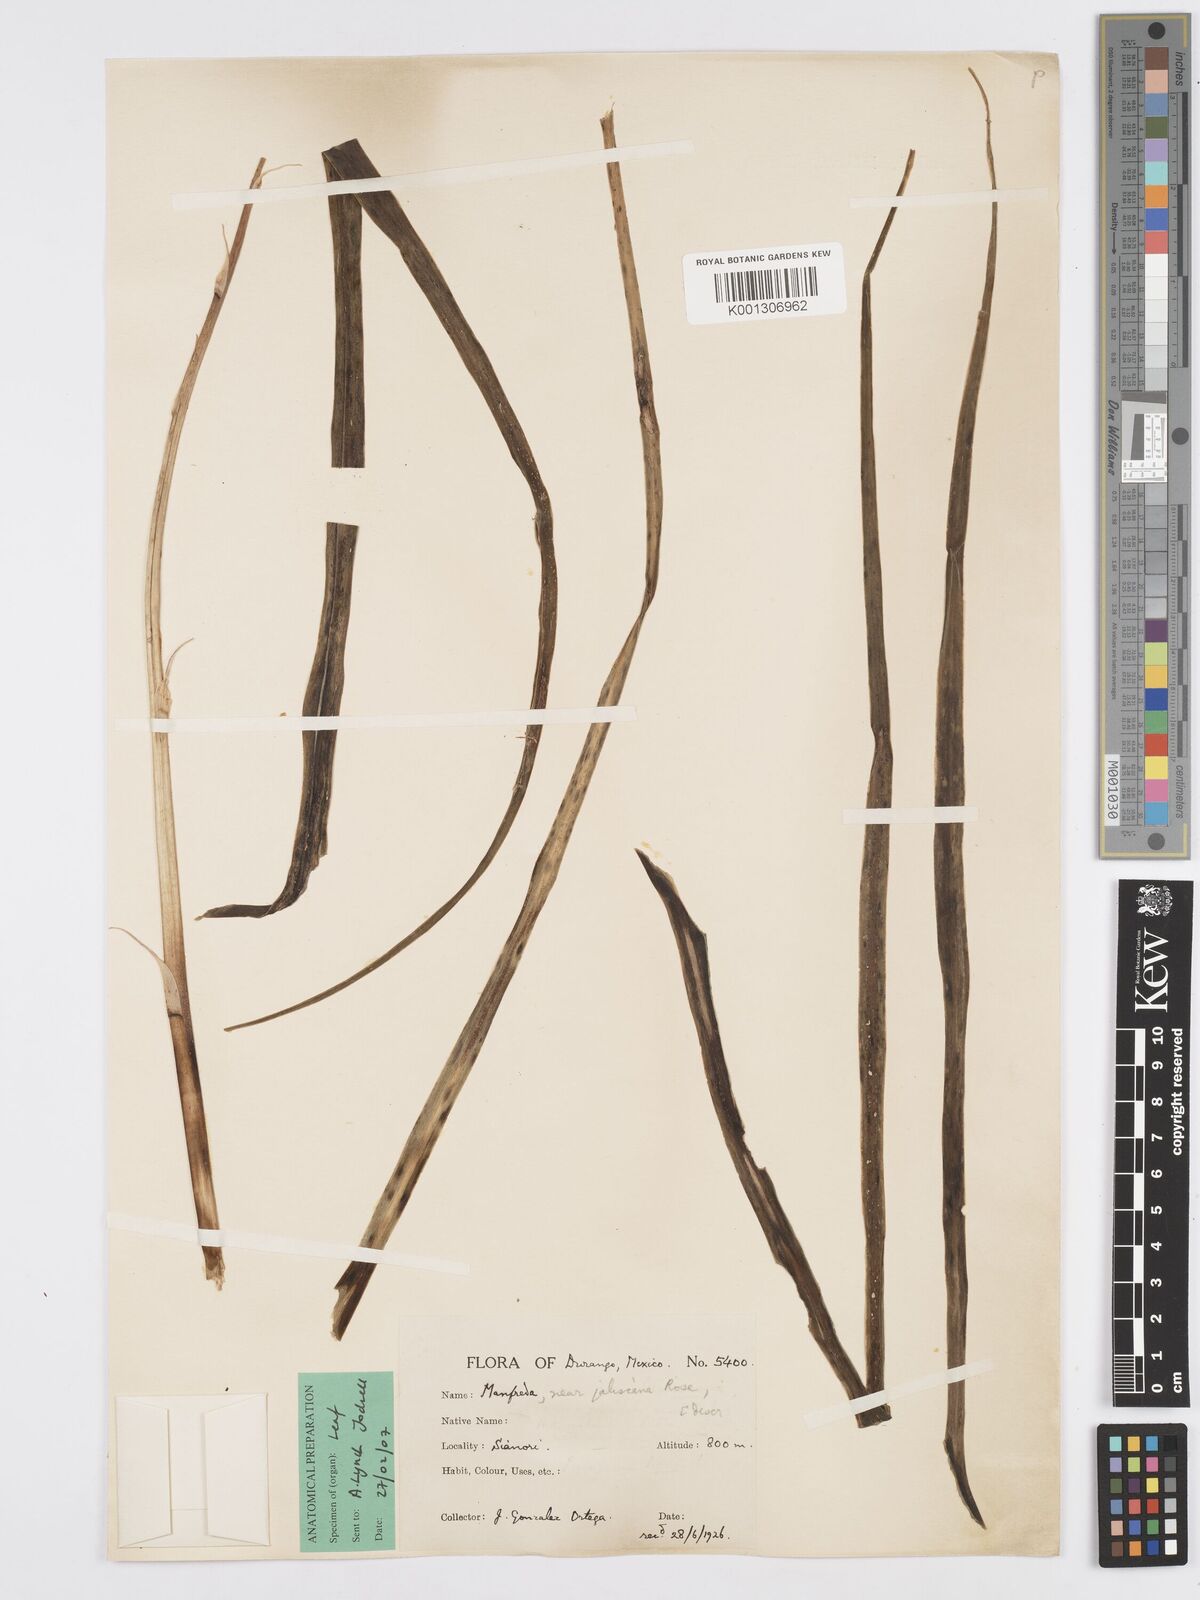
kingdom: Plantae
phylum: Tracheophyta
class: Liliopsida
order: Asparagales
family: Asparagaceae
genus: Agave
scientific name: Agave jaliscana
